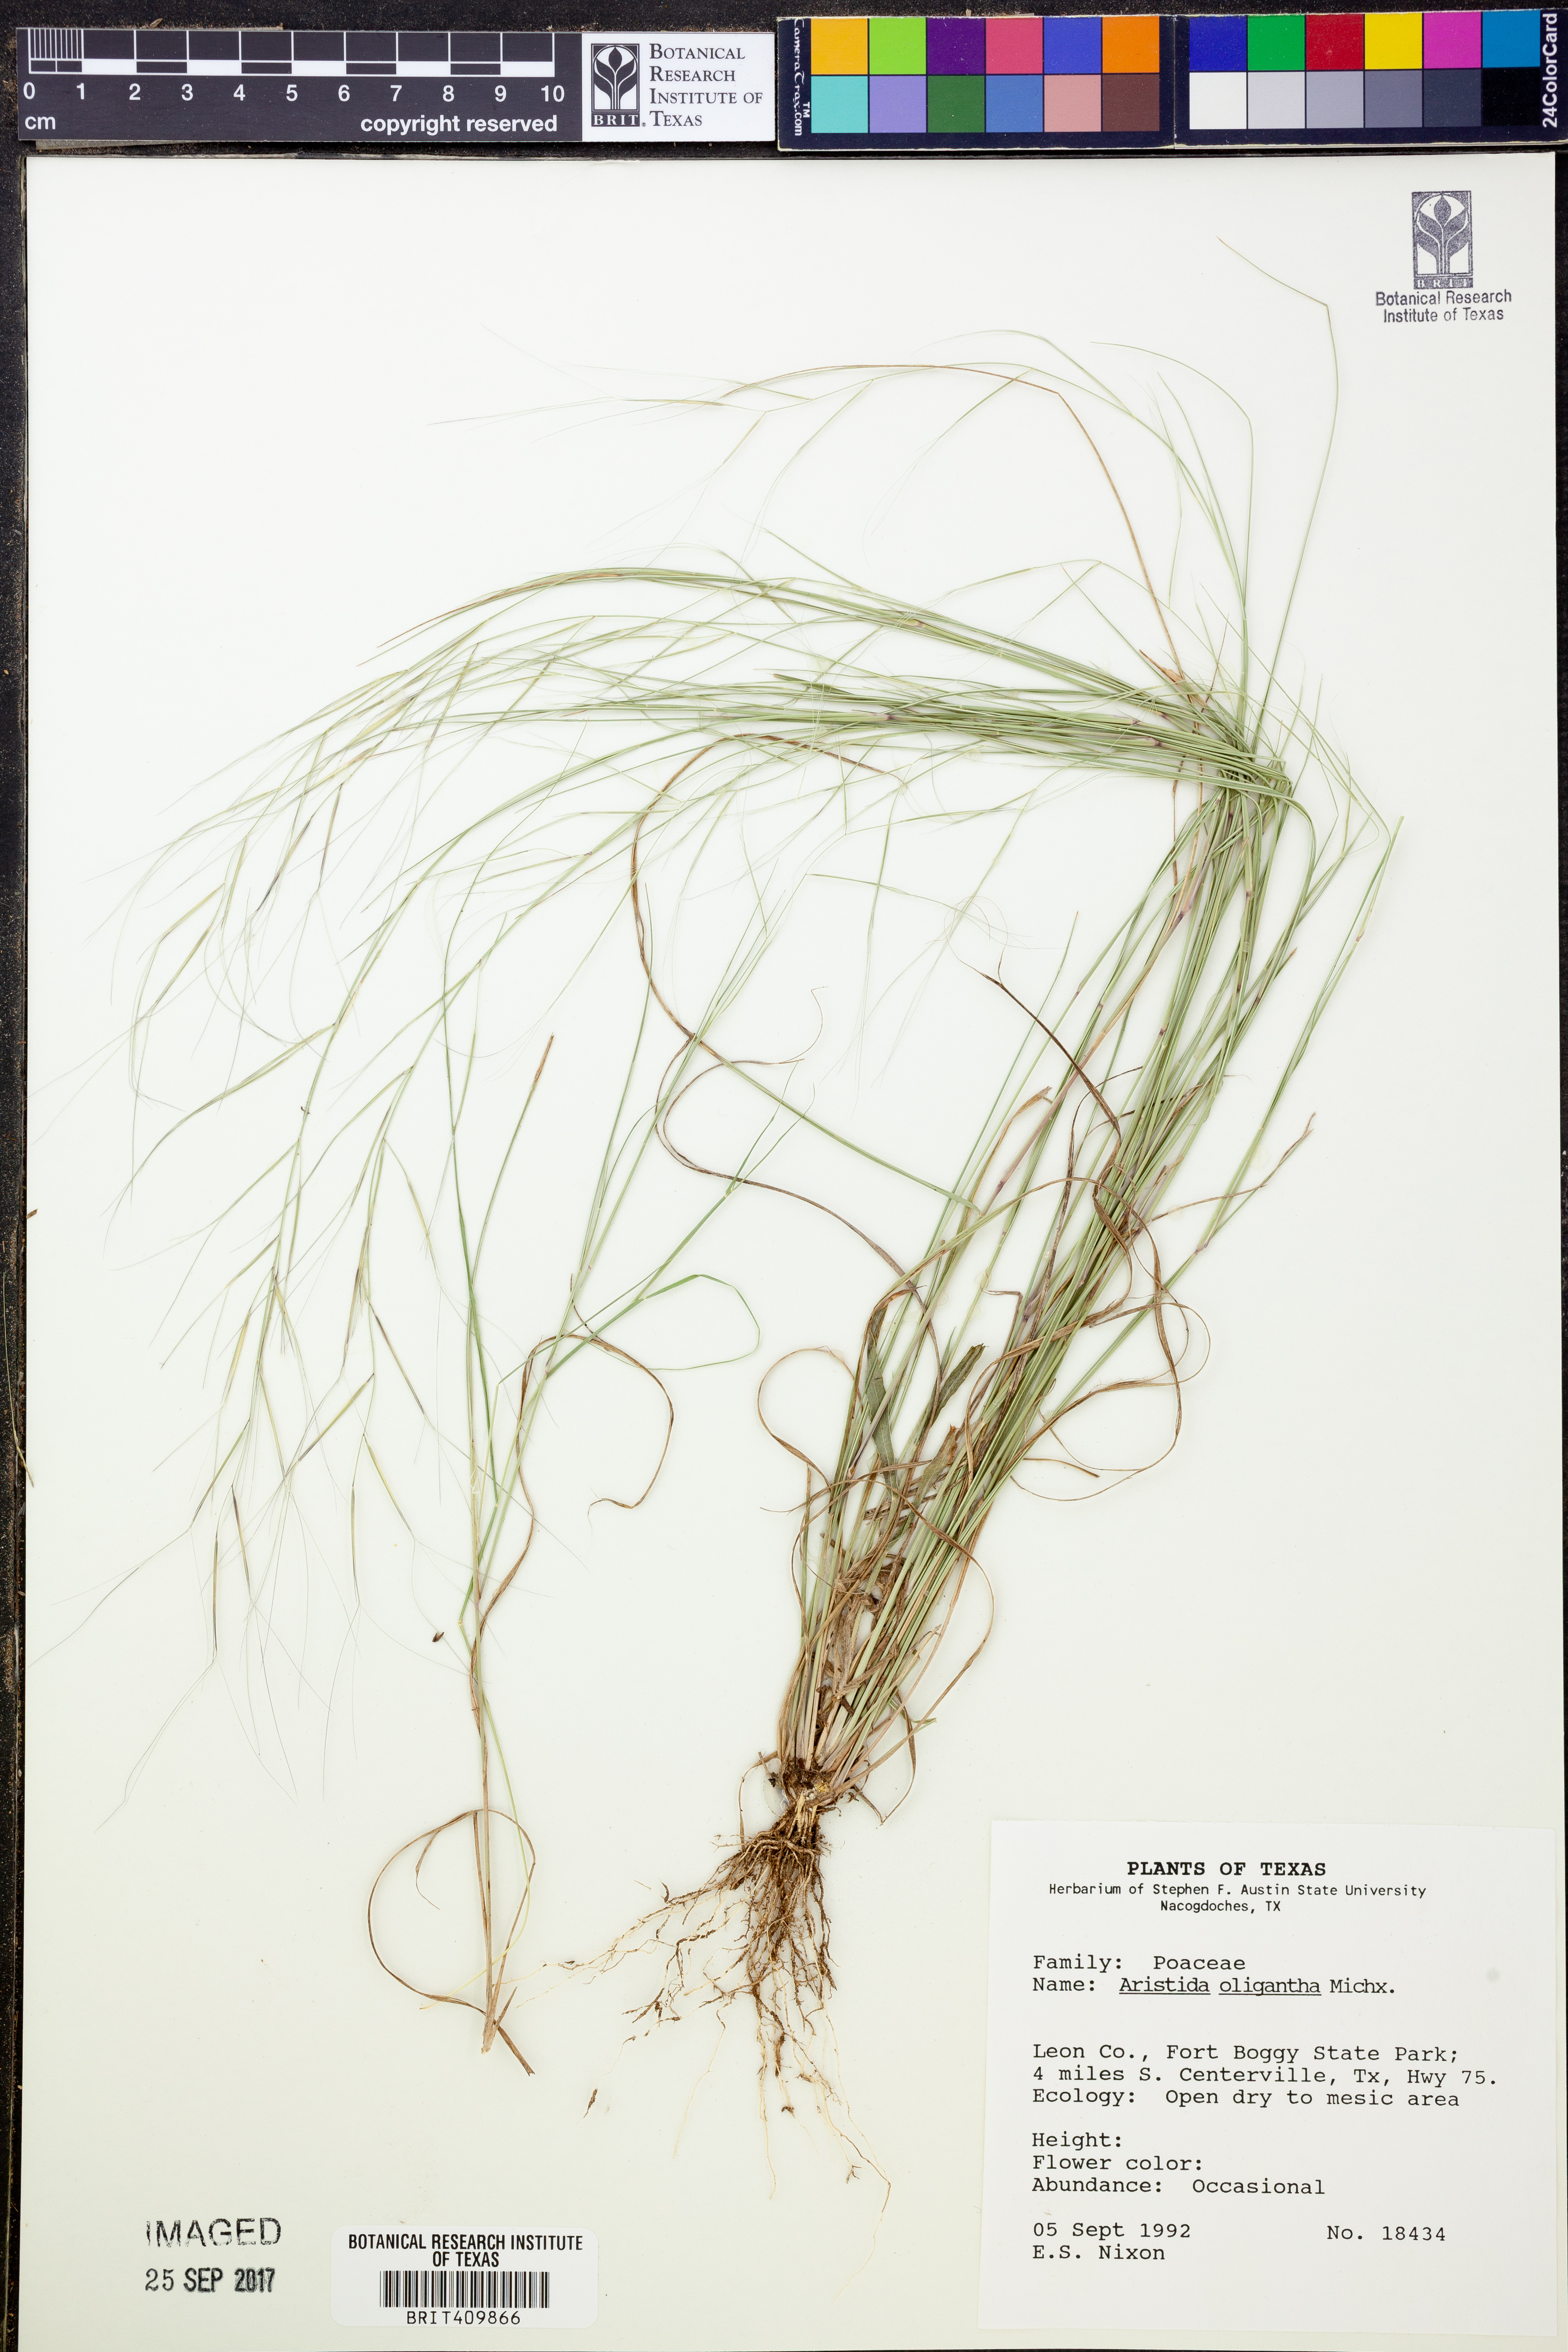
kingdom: Plantae
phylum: Tracheophyta
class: Liliopsida
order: Poales
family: Poaceae
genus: Aristida
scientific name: Aristida oligantha
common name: Few-flowered aristida
